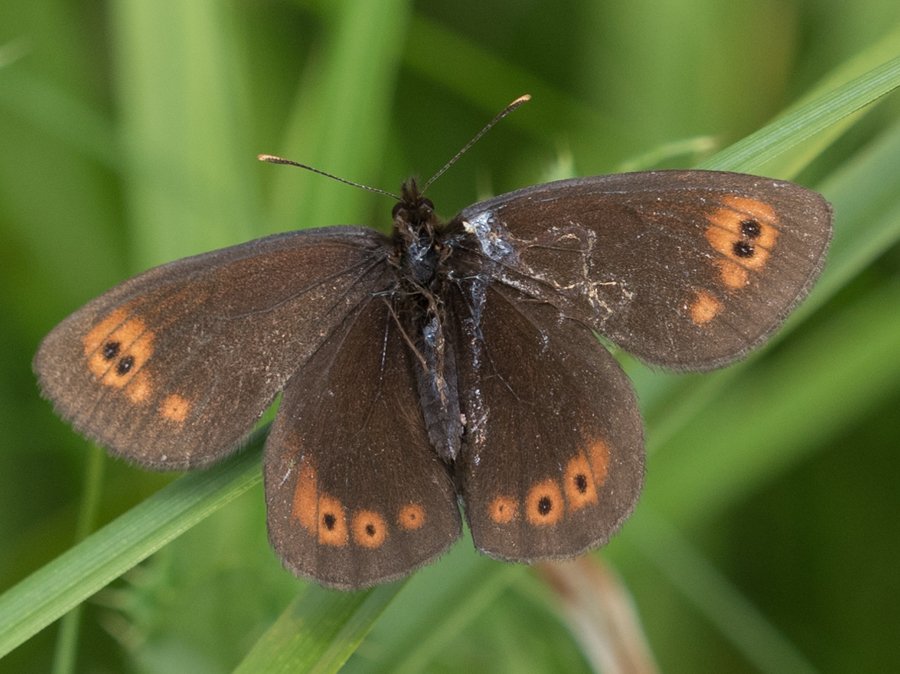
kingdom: Animalia
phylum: Arthropoda
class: Insecta
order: Lepidoptera
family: Nymphalidae
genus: Erebia
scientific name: Erebia epipsodea
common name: Common Alpine
